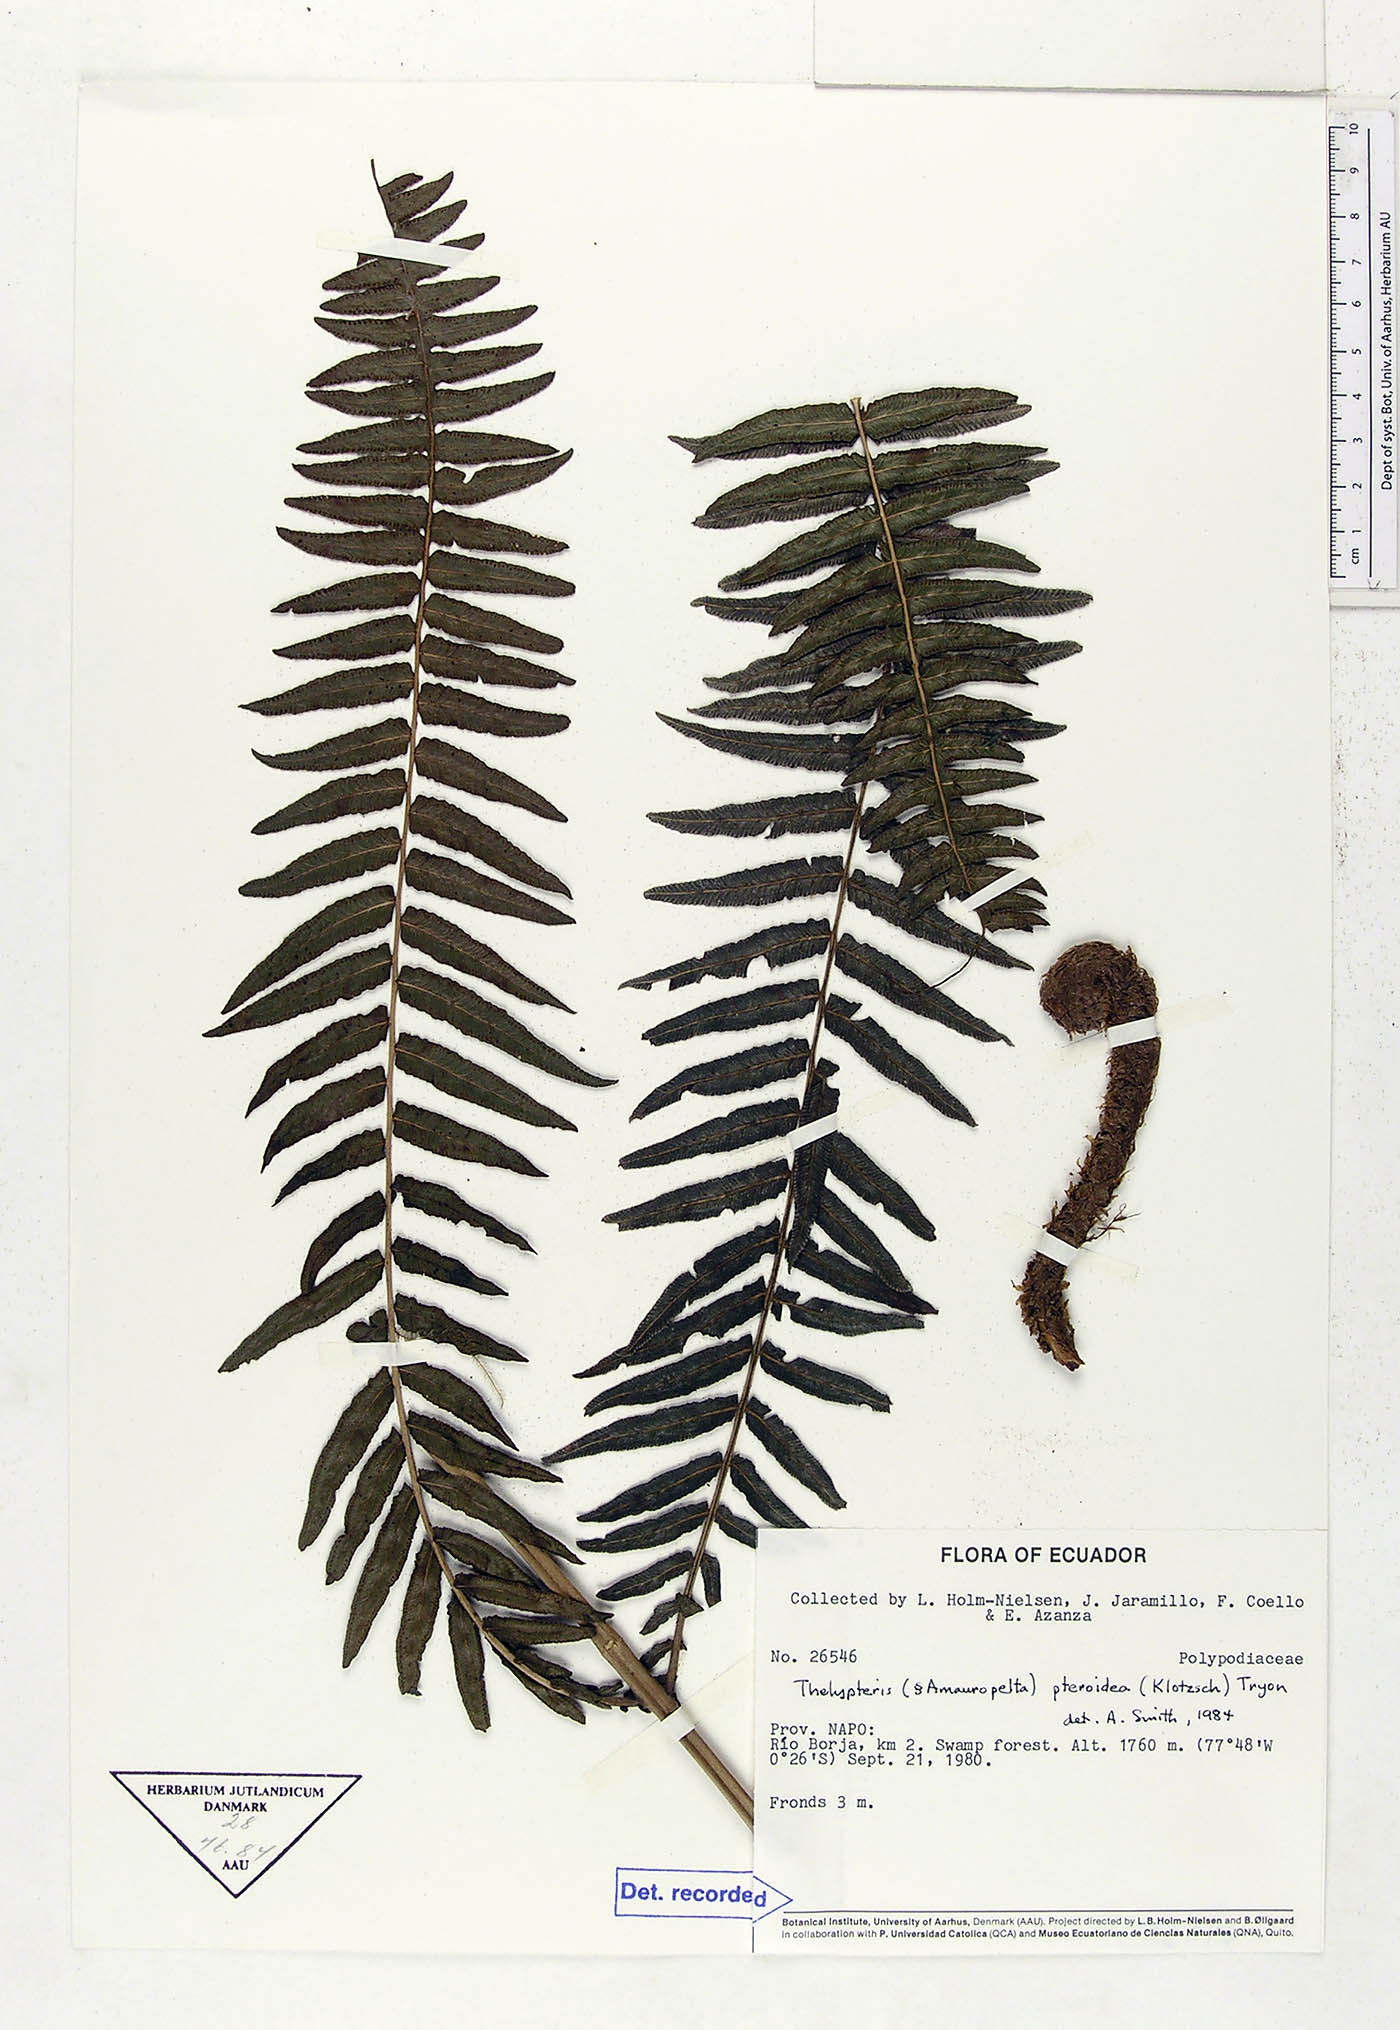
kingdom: Plantae
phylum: Tracheophyta
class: Polypodiopsida
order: Polypodiales
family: Thelypteridaceae
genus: Amauropelta
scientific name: Amauropelta pteroidea
